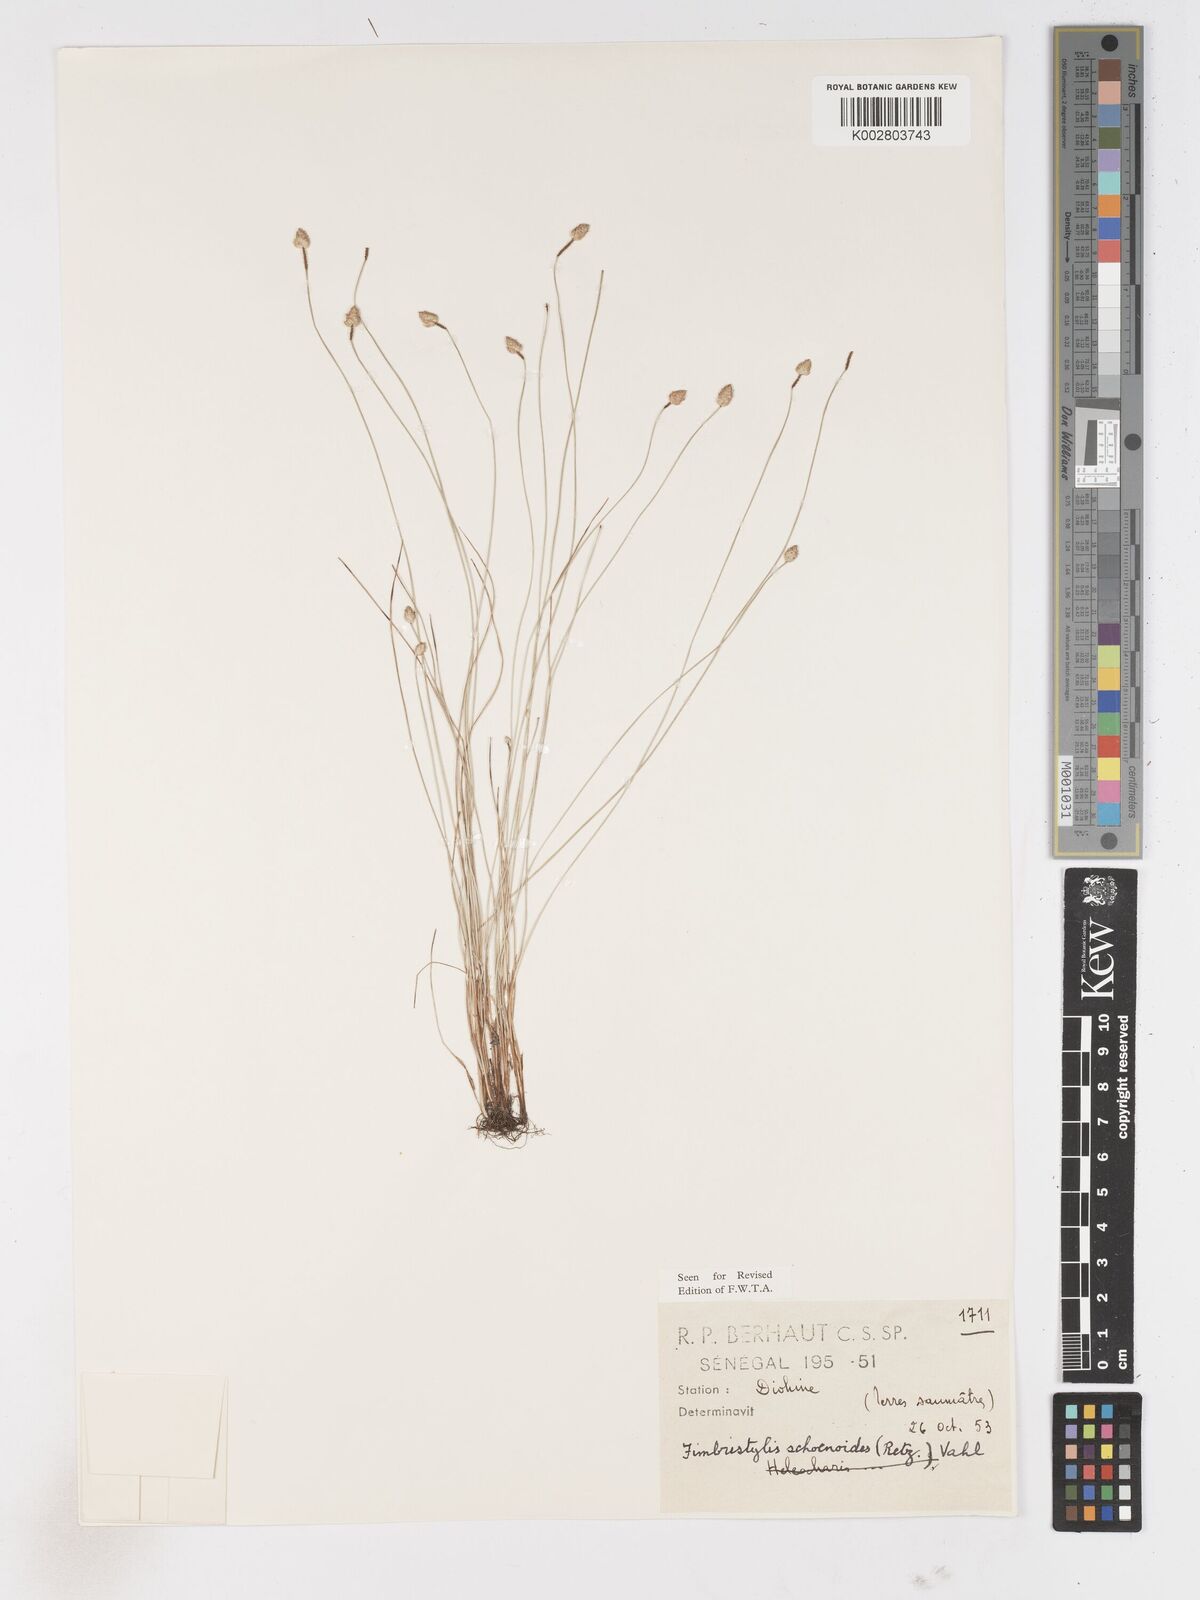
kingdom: Plantae
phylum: Tracheophyta
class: Liliopsida
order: Poales
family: Cyperaceae
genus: Fimbristylis
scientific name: Fimbristylis schoenoides
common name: Ditch fimbry
